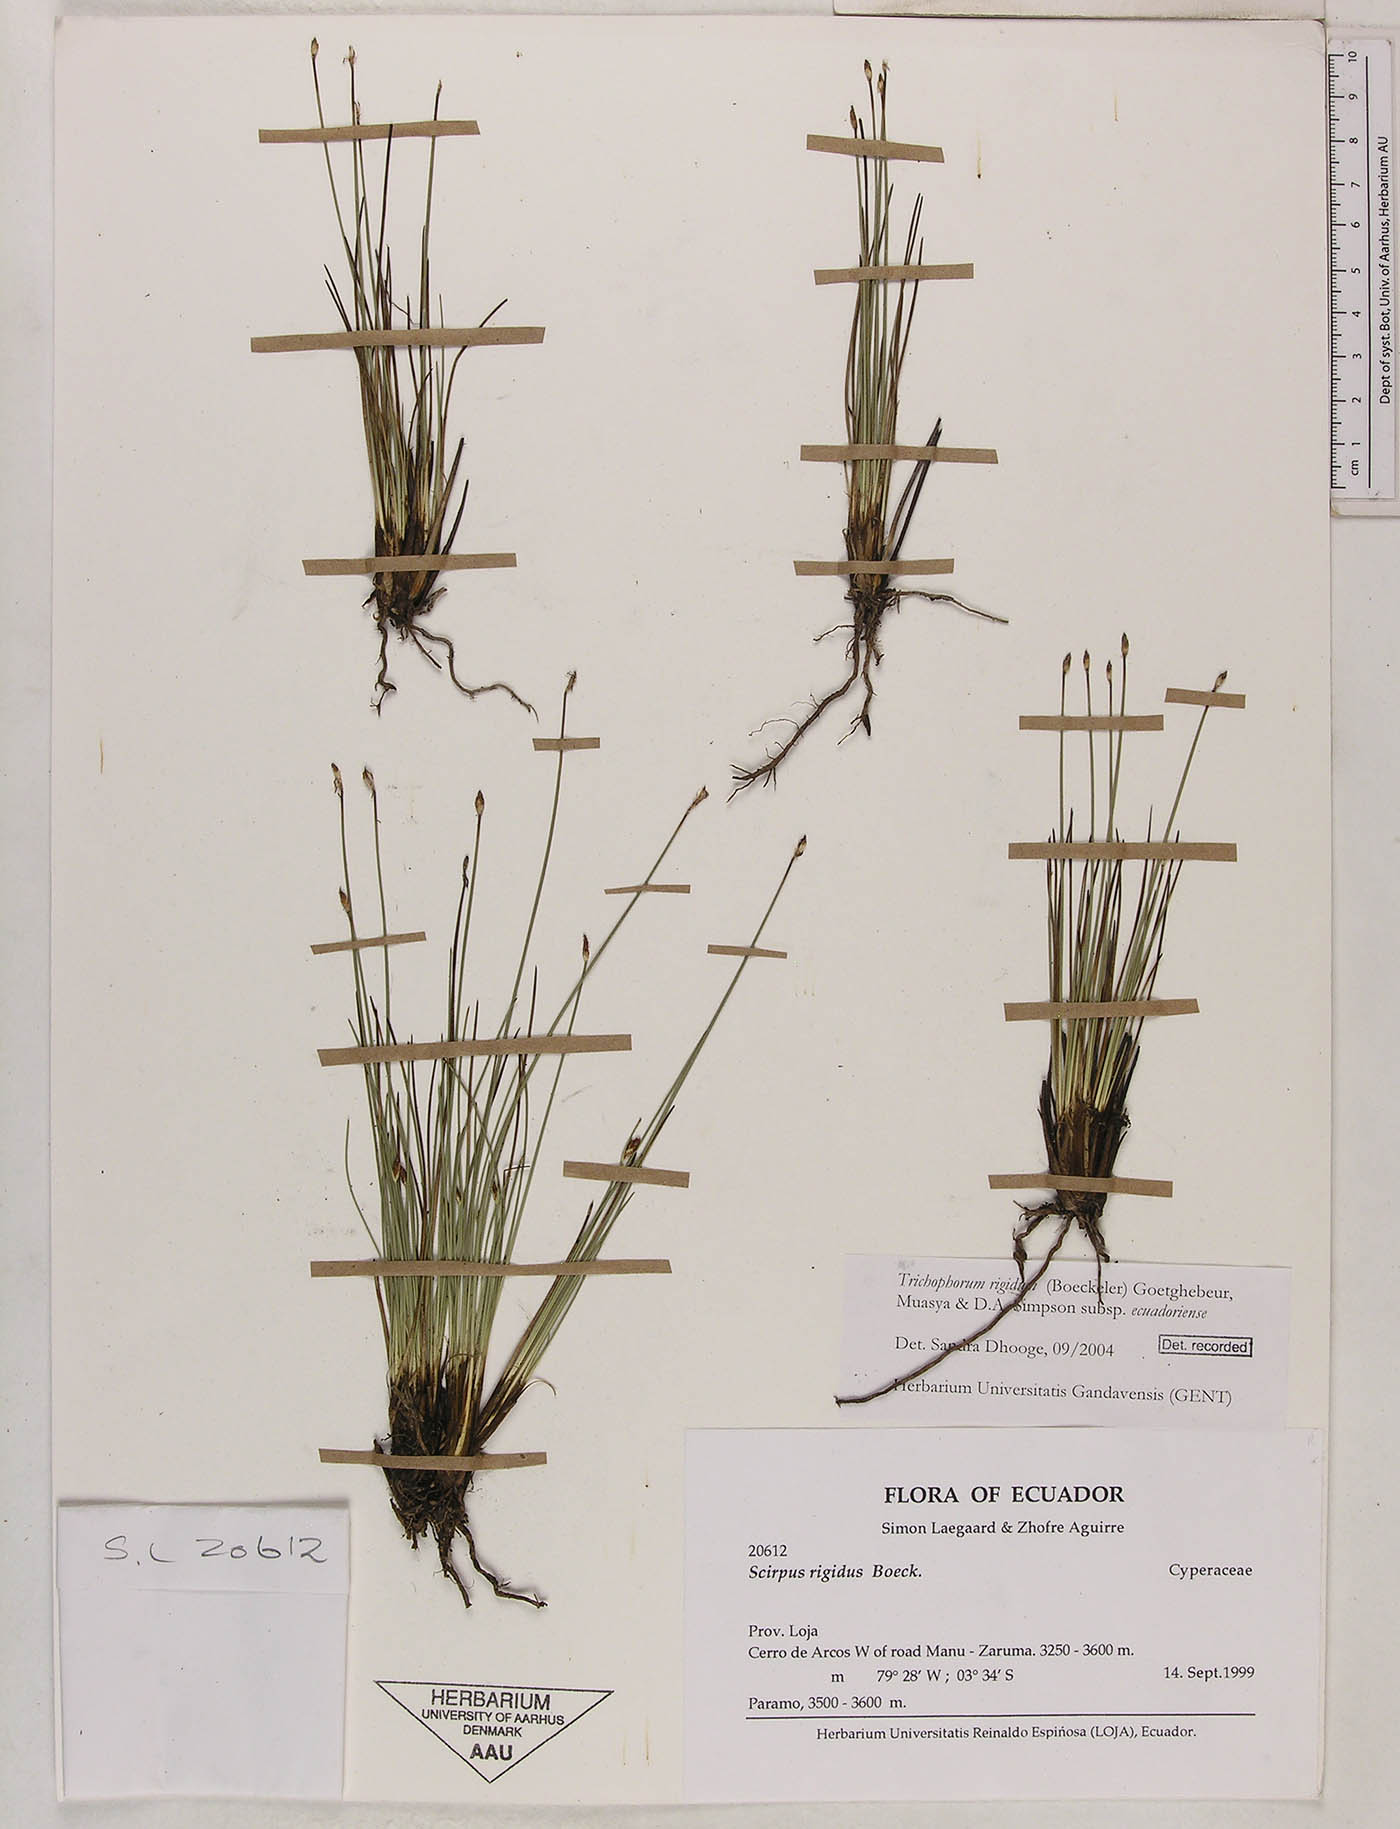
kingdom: Plantae
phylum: Tracheophyta
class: Liliopsida
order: Poales
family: Cyperaceae
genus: Trichophorum
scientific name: Trichophorum rigidum
